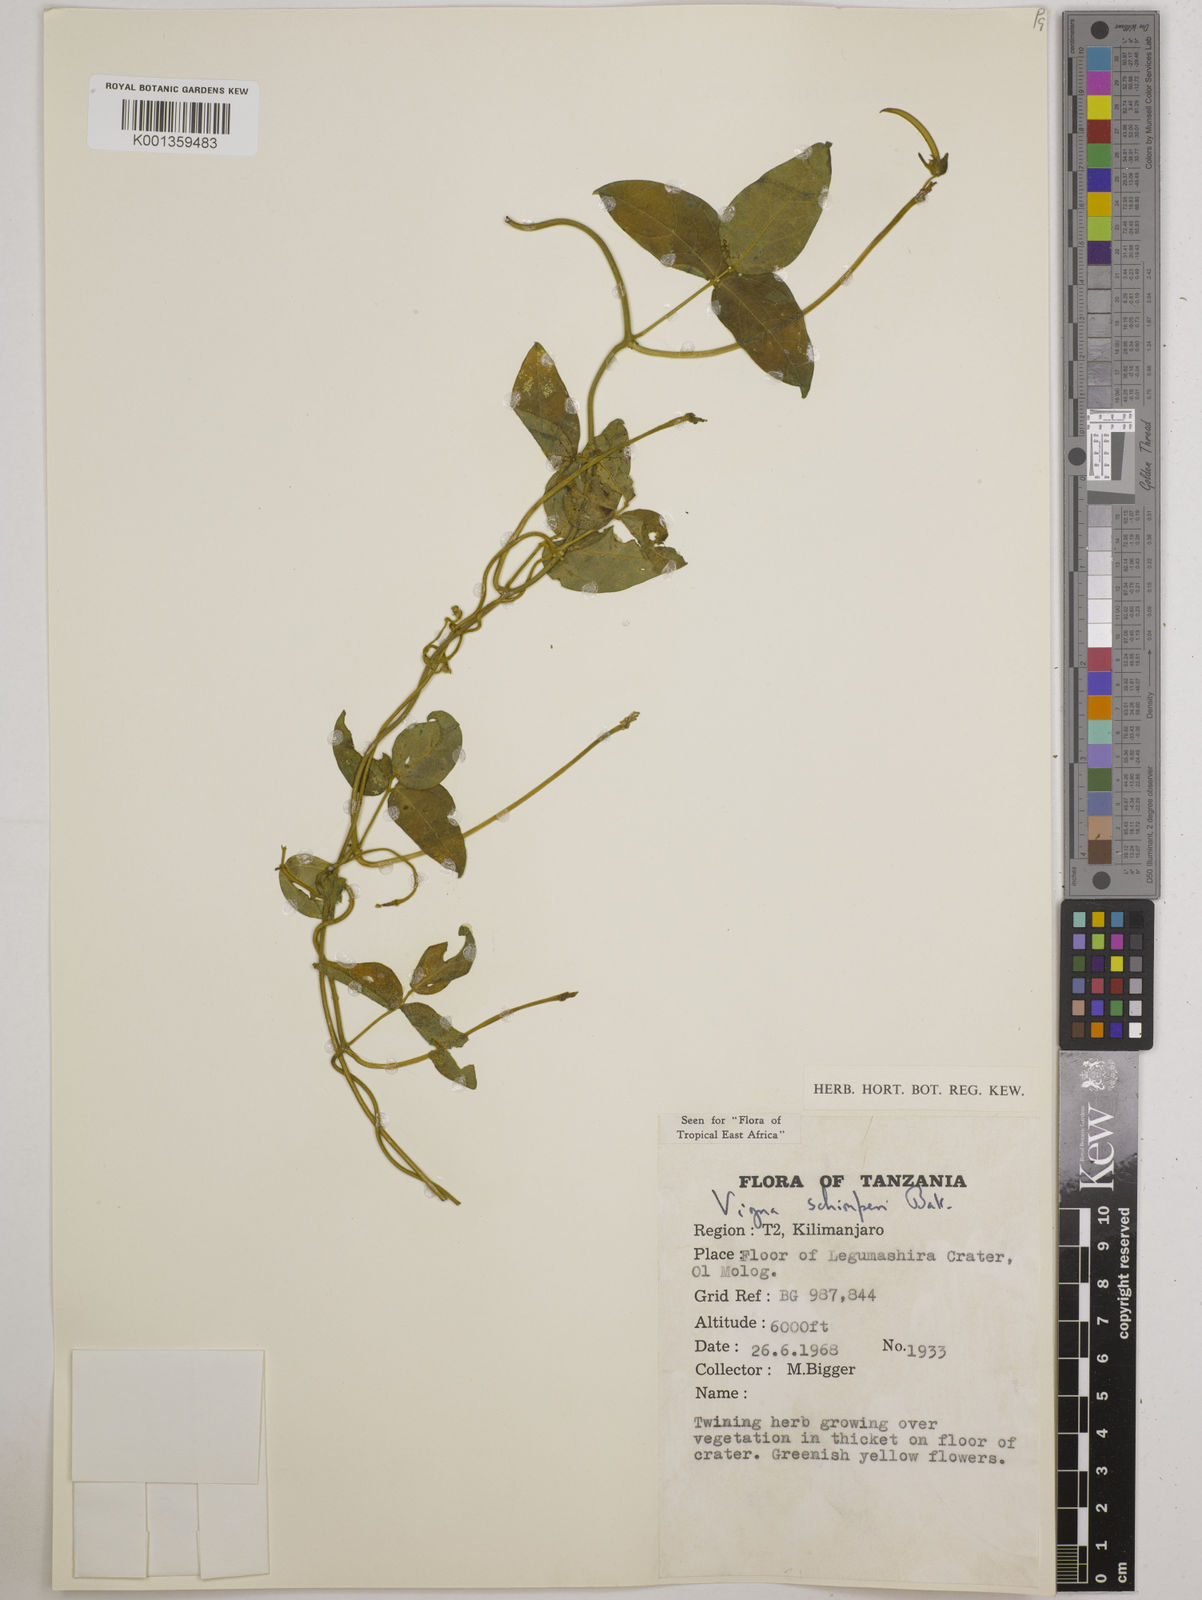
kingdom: Plantae
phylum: Tracheophyta
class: Magnoliopsida
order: Fabales
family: Fabaceae
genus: Vigna
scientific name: Vigna schimperi
